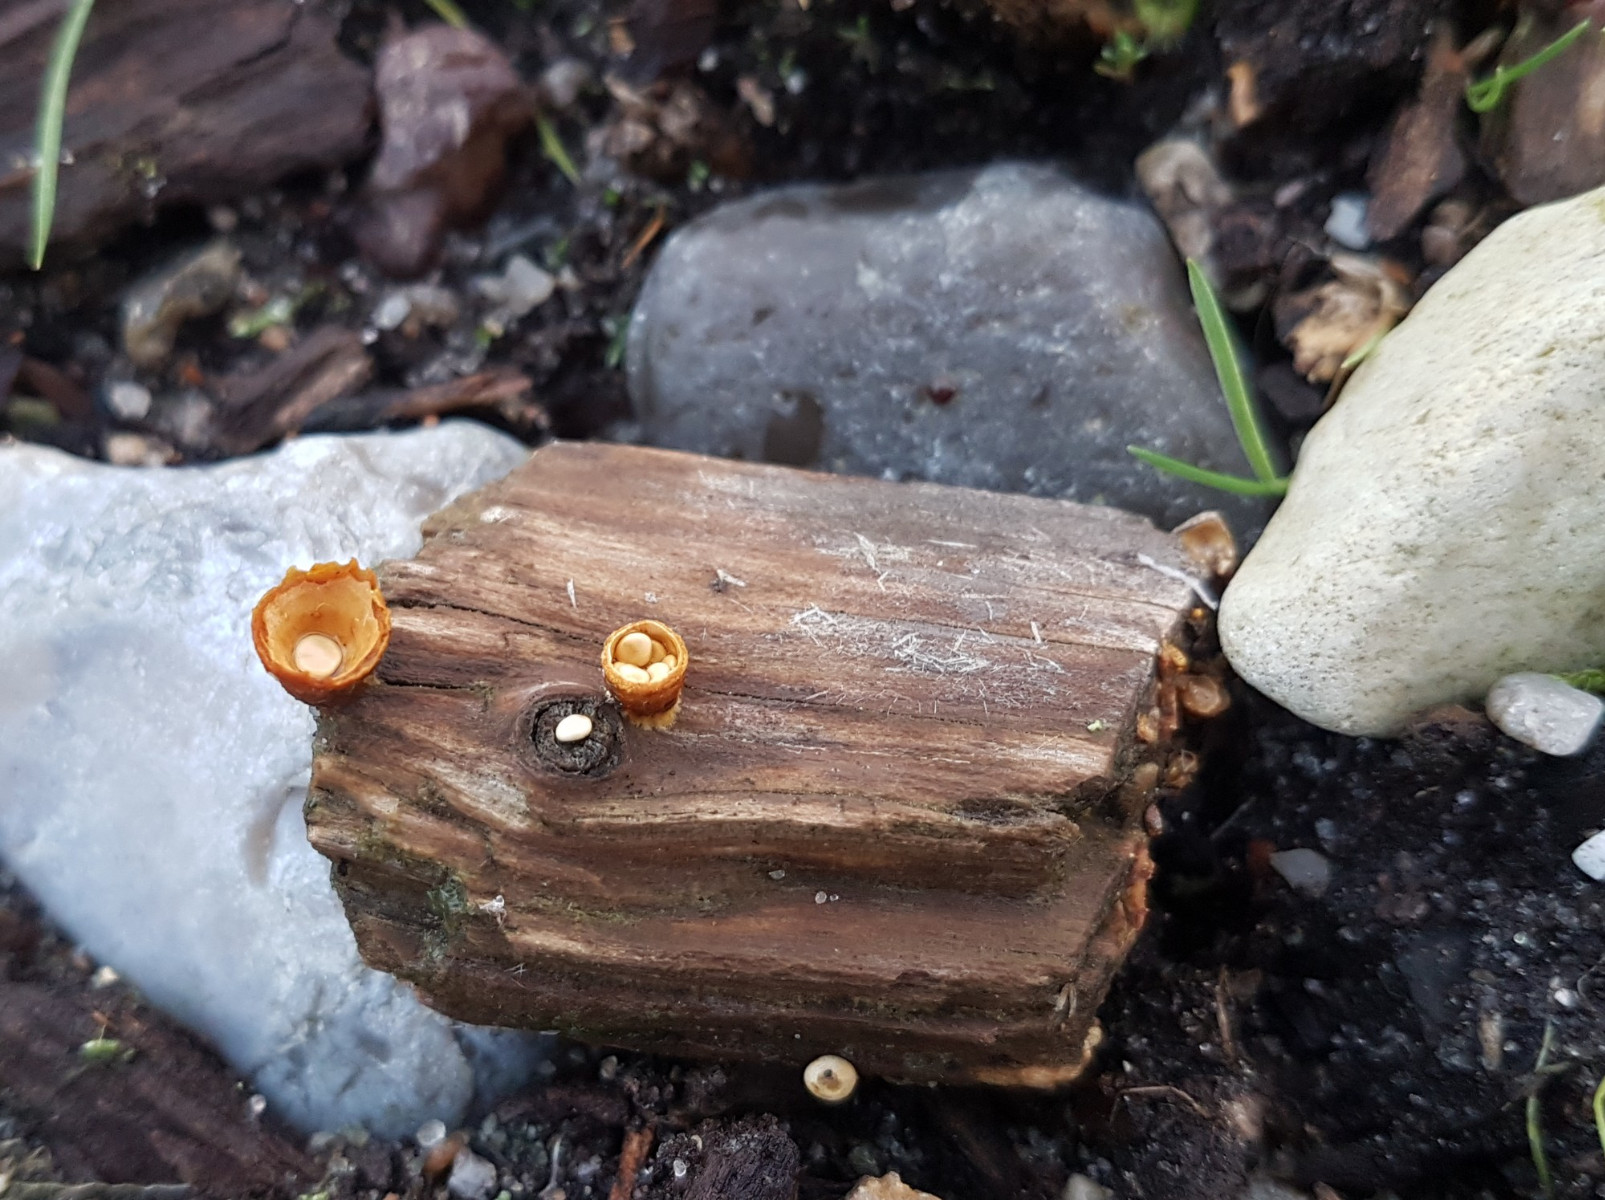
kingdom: Fungi
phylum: Basidiomycota
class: Agaricomycetes
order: Agaricales
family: Nidulariaceae
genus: Crucibulum
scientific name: Crucibulum crucibuliforme
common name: krukkesvamp
